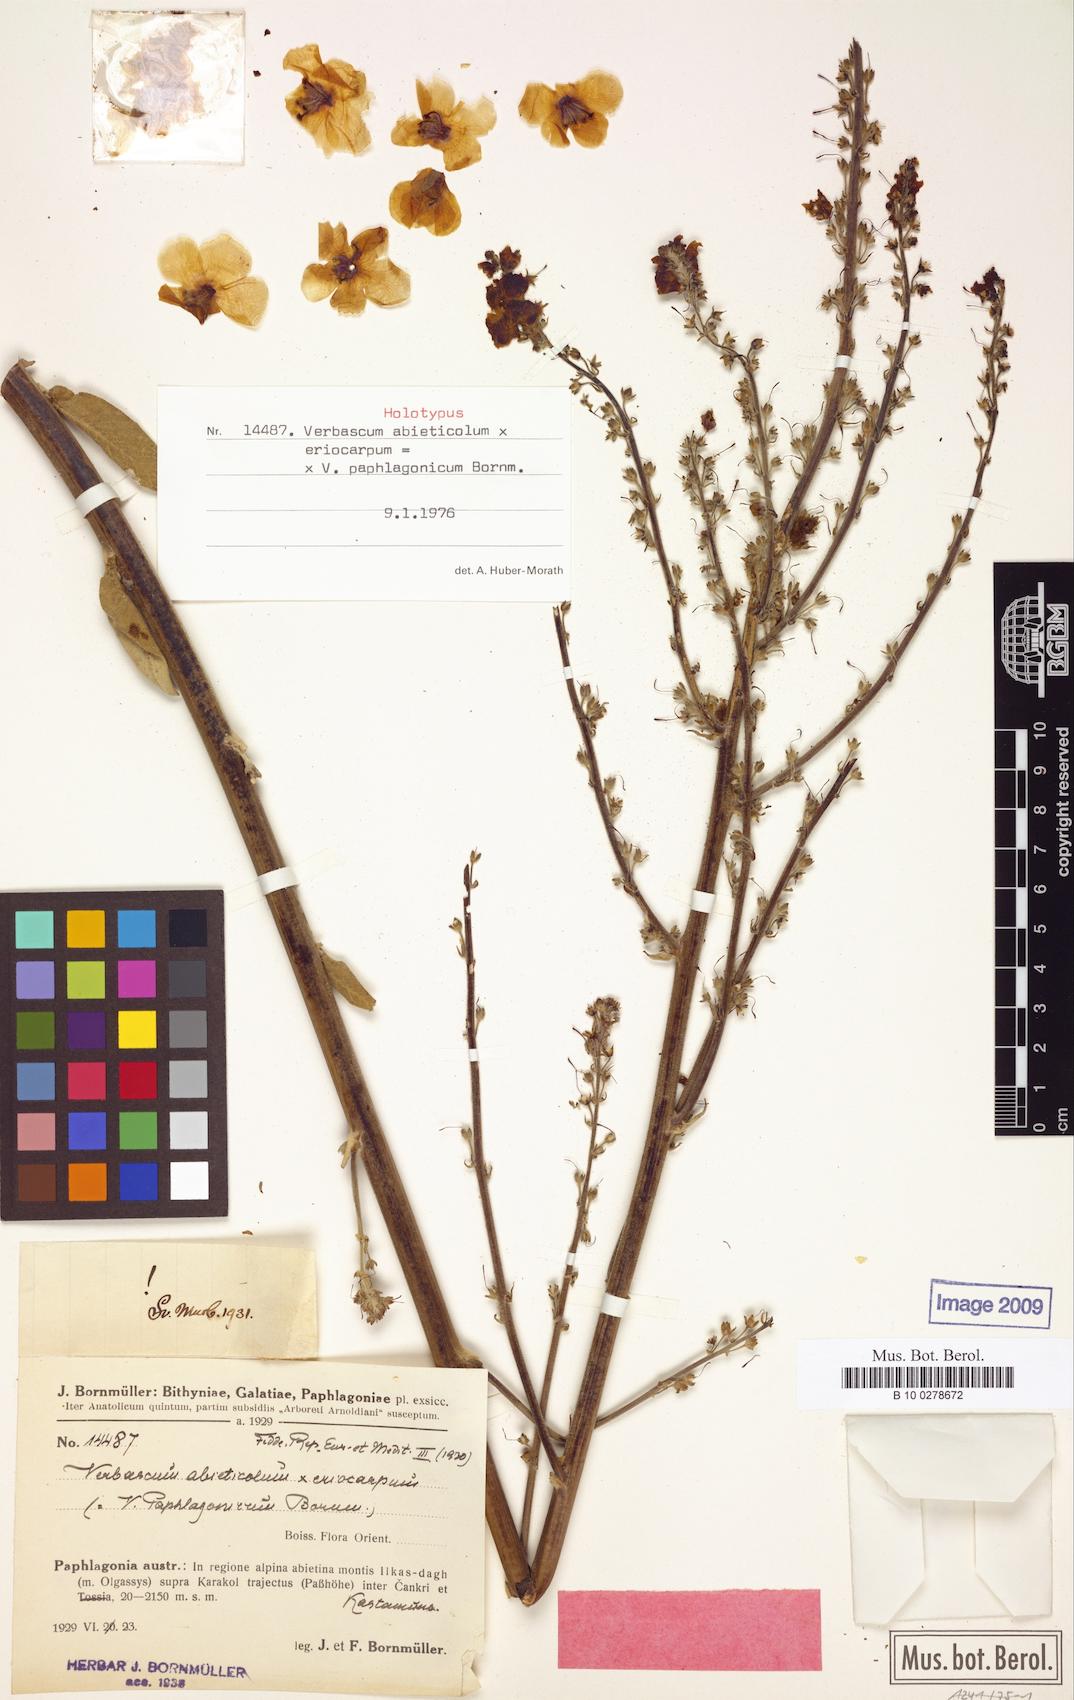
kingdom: Plantae
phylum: Tracheophyta
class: Magnoliopsida
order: Lamiales
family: Scrophulariaceae
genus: Verbascum
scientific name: Verbascum paphlagonicum
